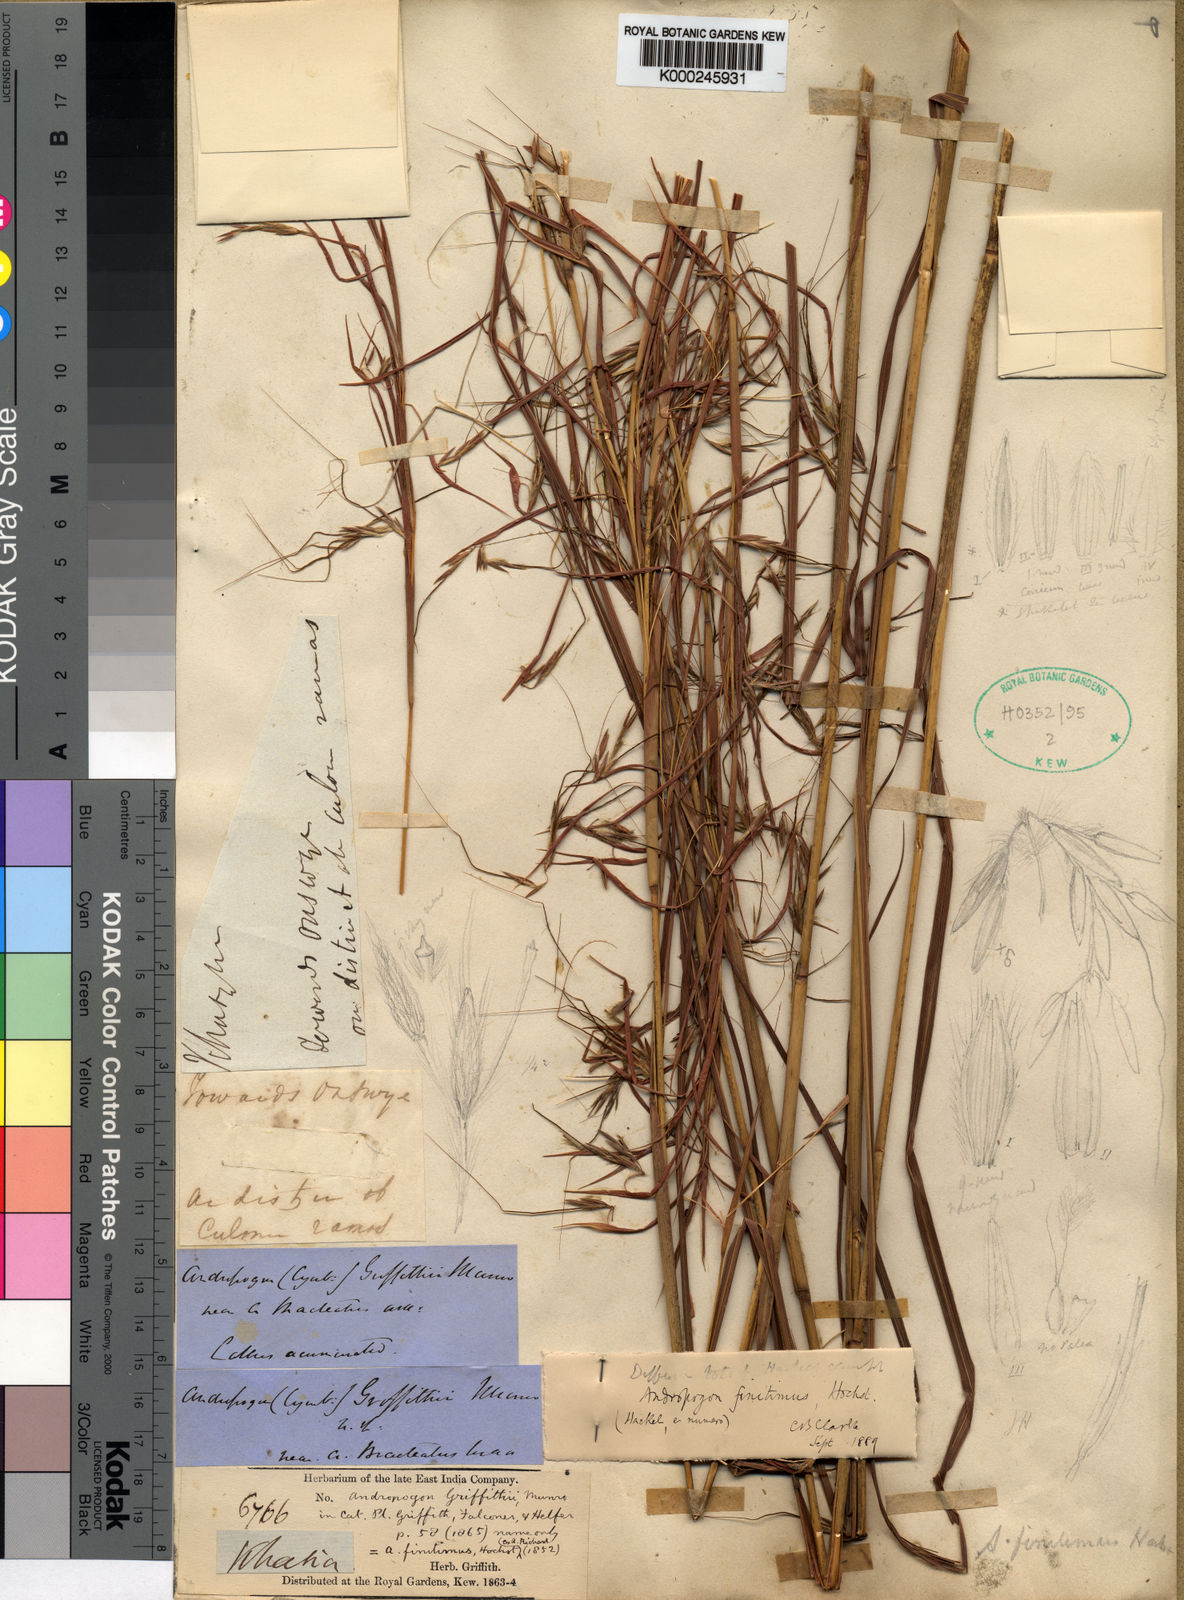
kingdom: Plantae
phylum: Tracheophyta
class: Liliopsida
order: Poales
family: Poaceae
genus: Hyparrhenia
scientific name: Hyparrhenia griffithii
